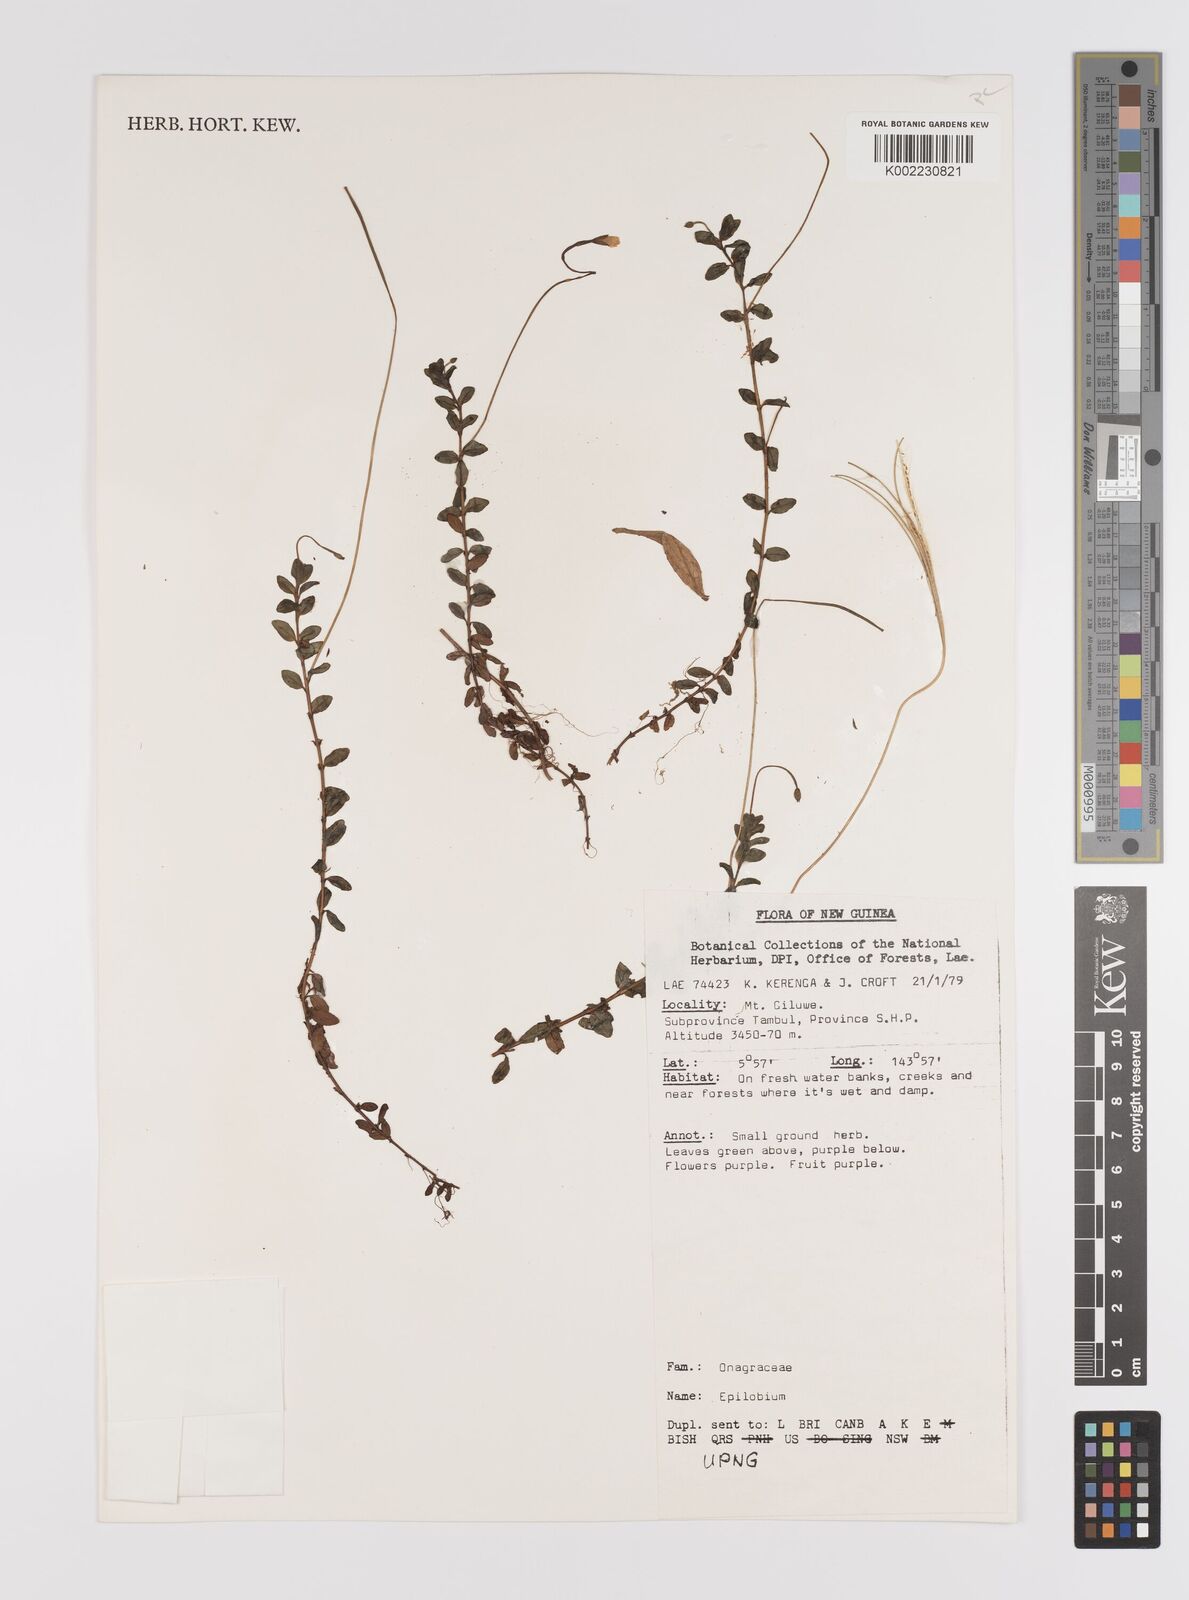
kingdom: Plantae
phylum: Tracheophyta
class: Magnoliopsida
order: Myrtales
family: Onagraceae
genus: Epilobium
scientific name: Epilobium
